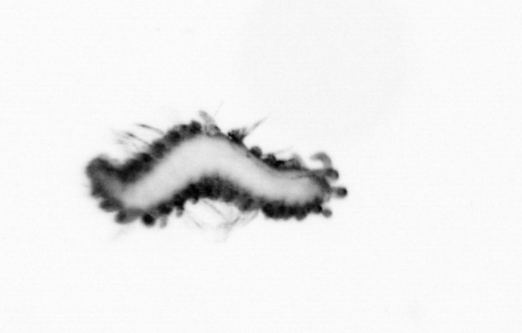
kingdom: Animalia
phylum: Annelida
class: Polychaeta
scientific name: Polychaeta
